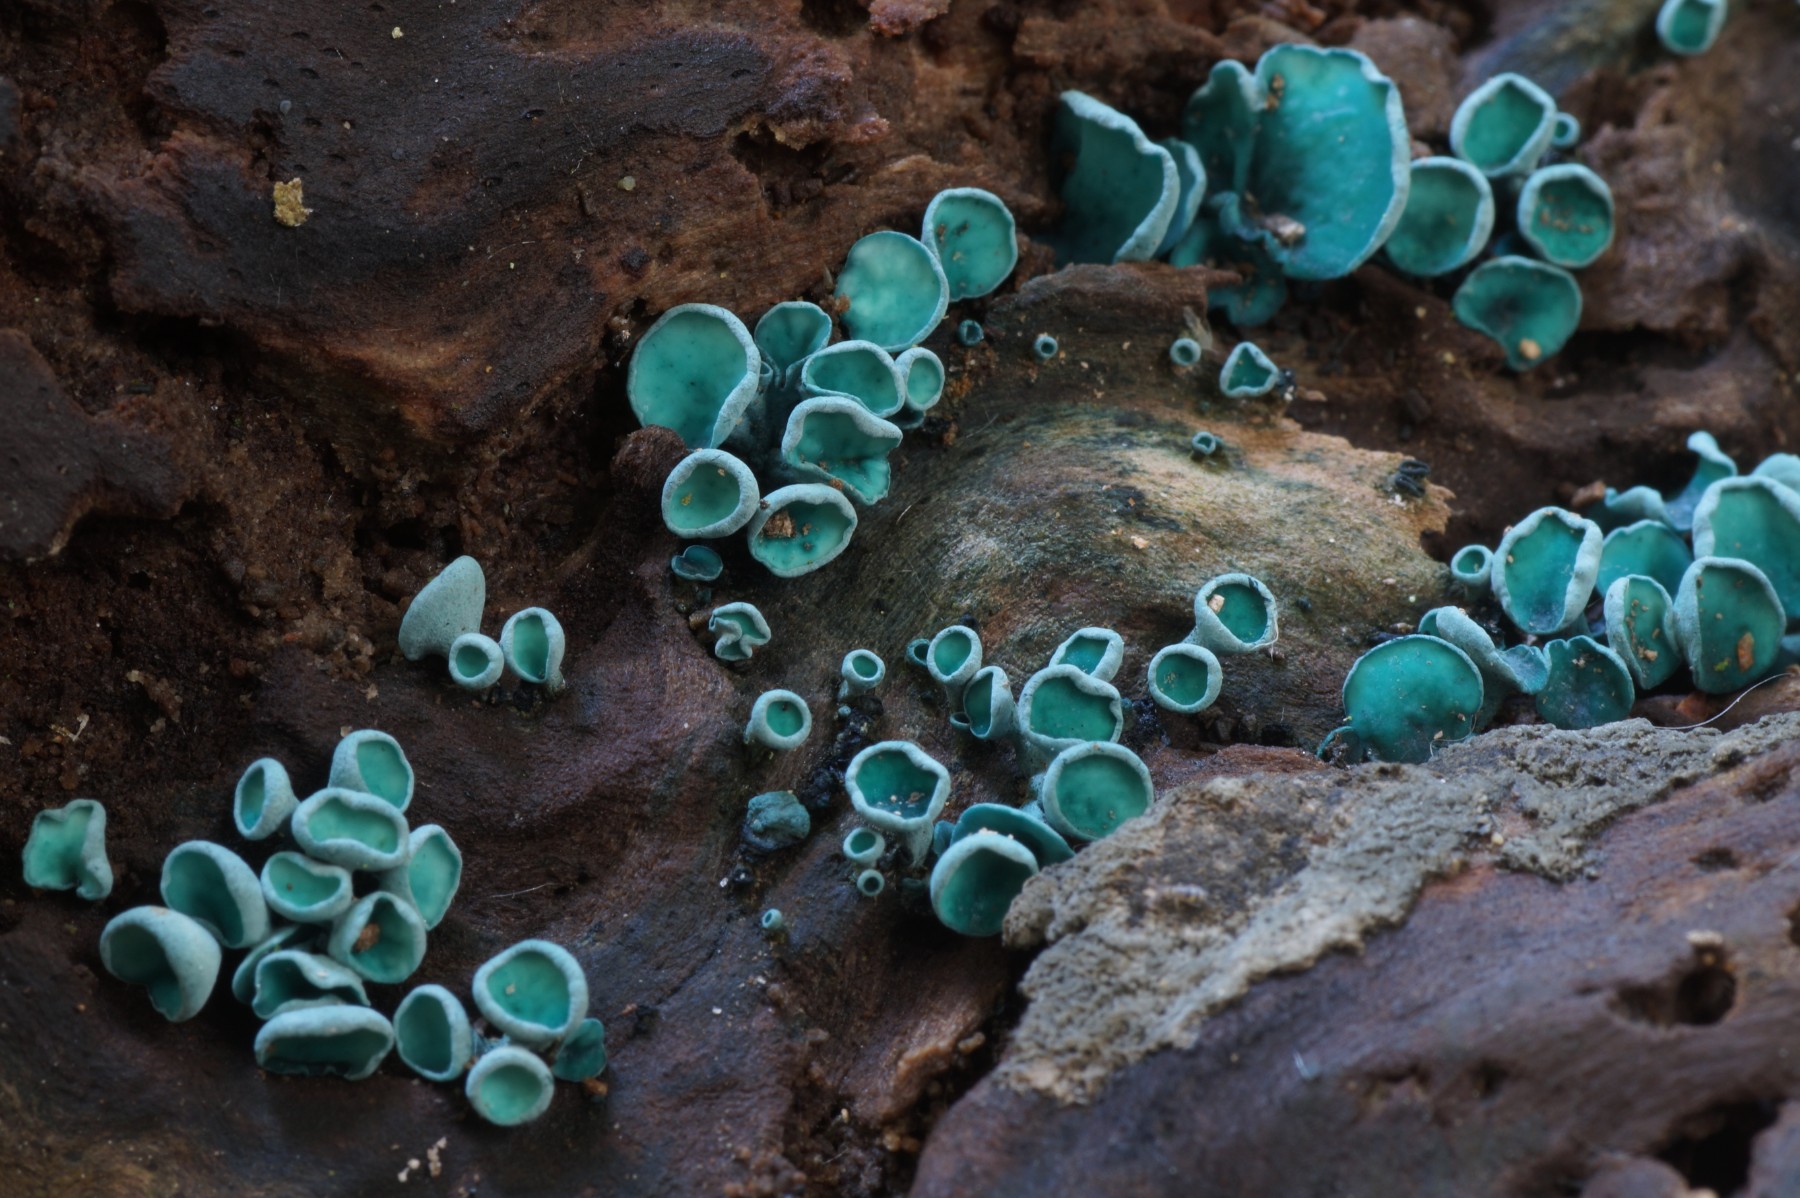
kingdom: Fungi
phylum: Ascomycota
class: Leotiomycetes
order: Helotiales
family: Chlorociboriaceae
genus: Chlorociboria
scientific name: Chlorociboria aeruginascens
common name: almindelig grønskive
